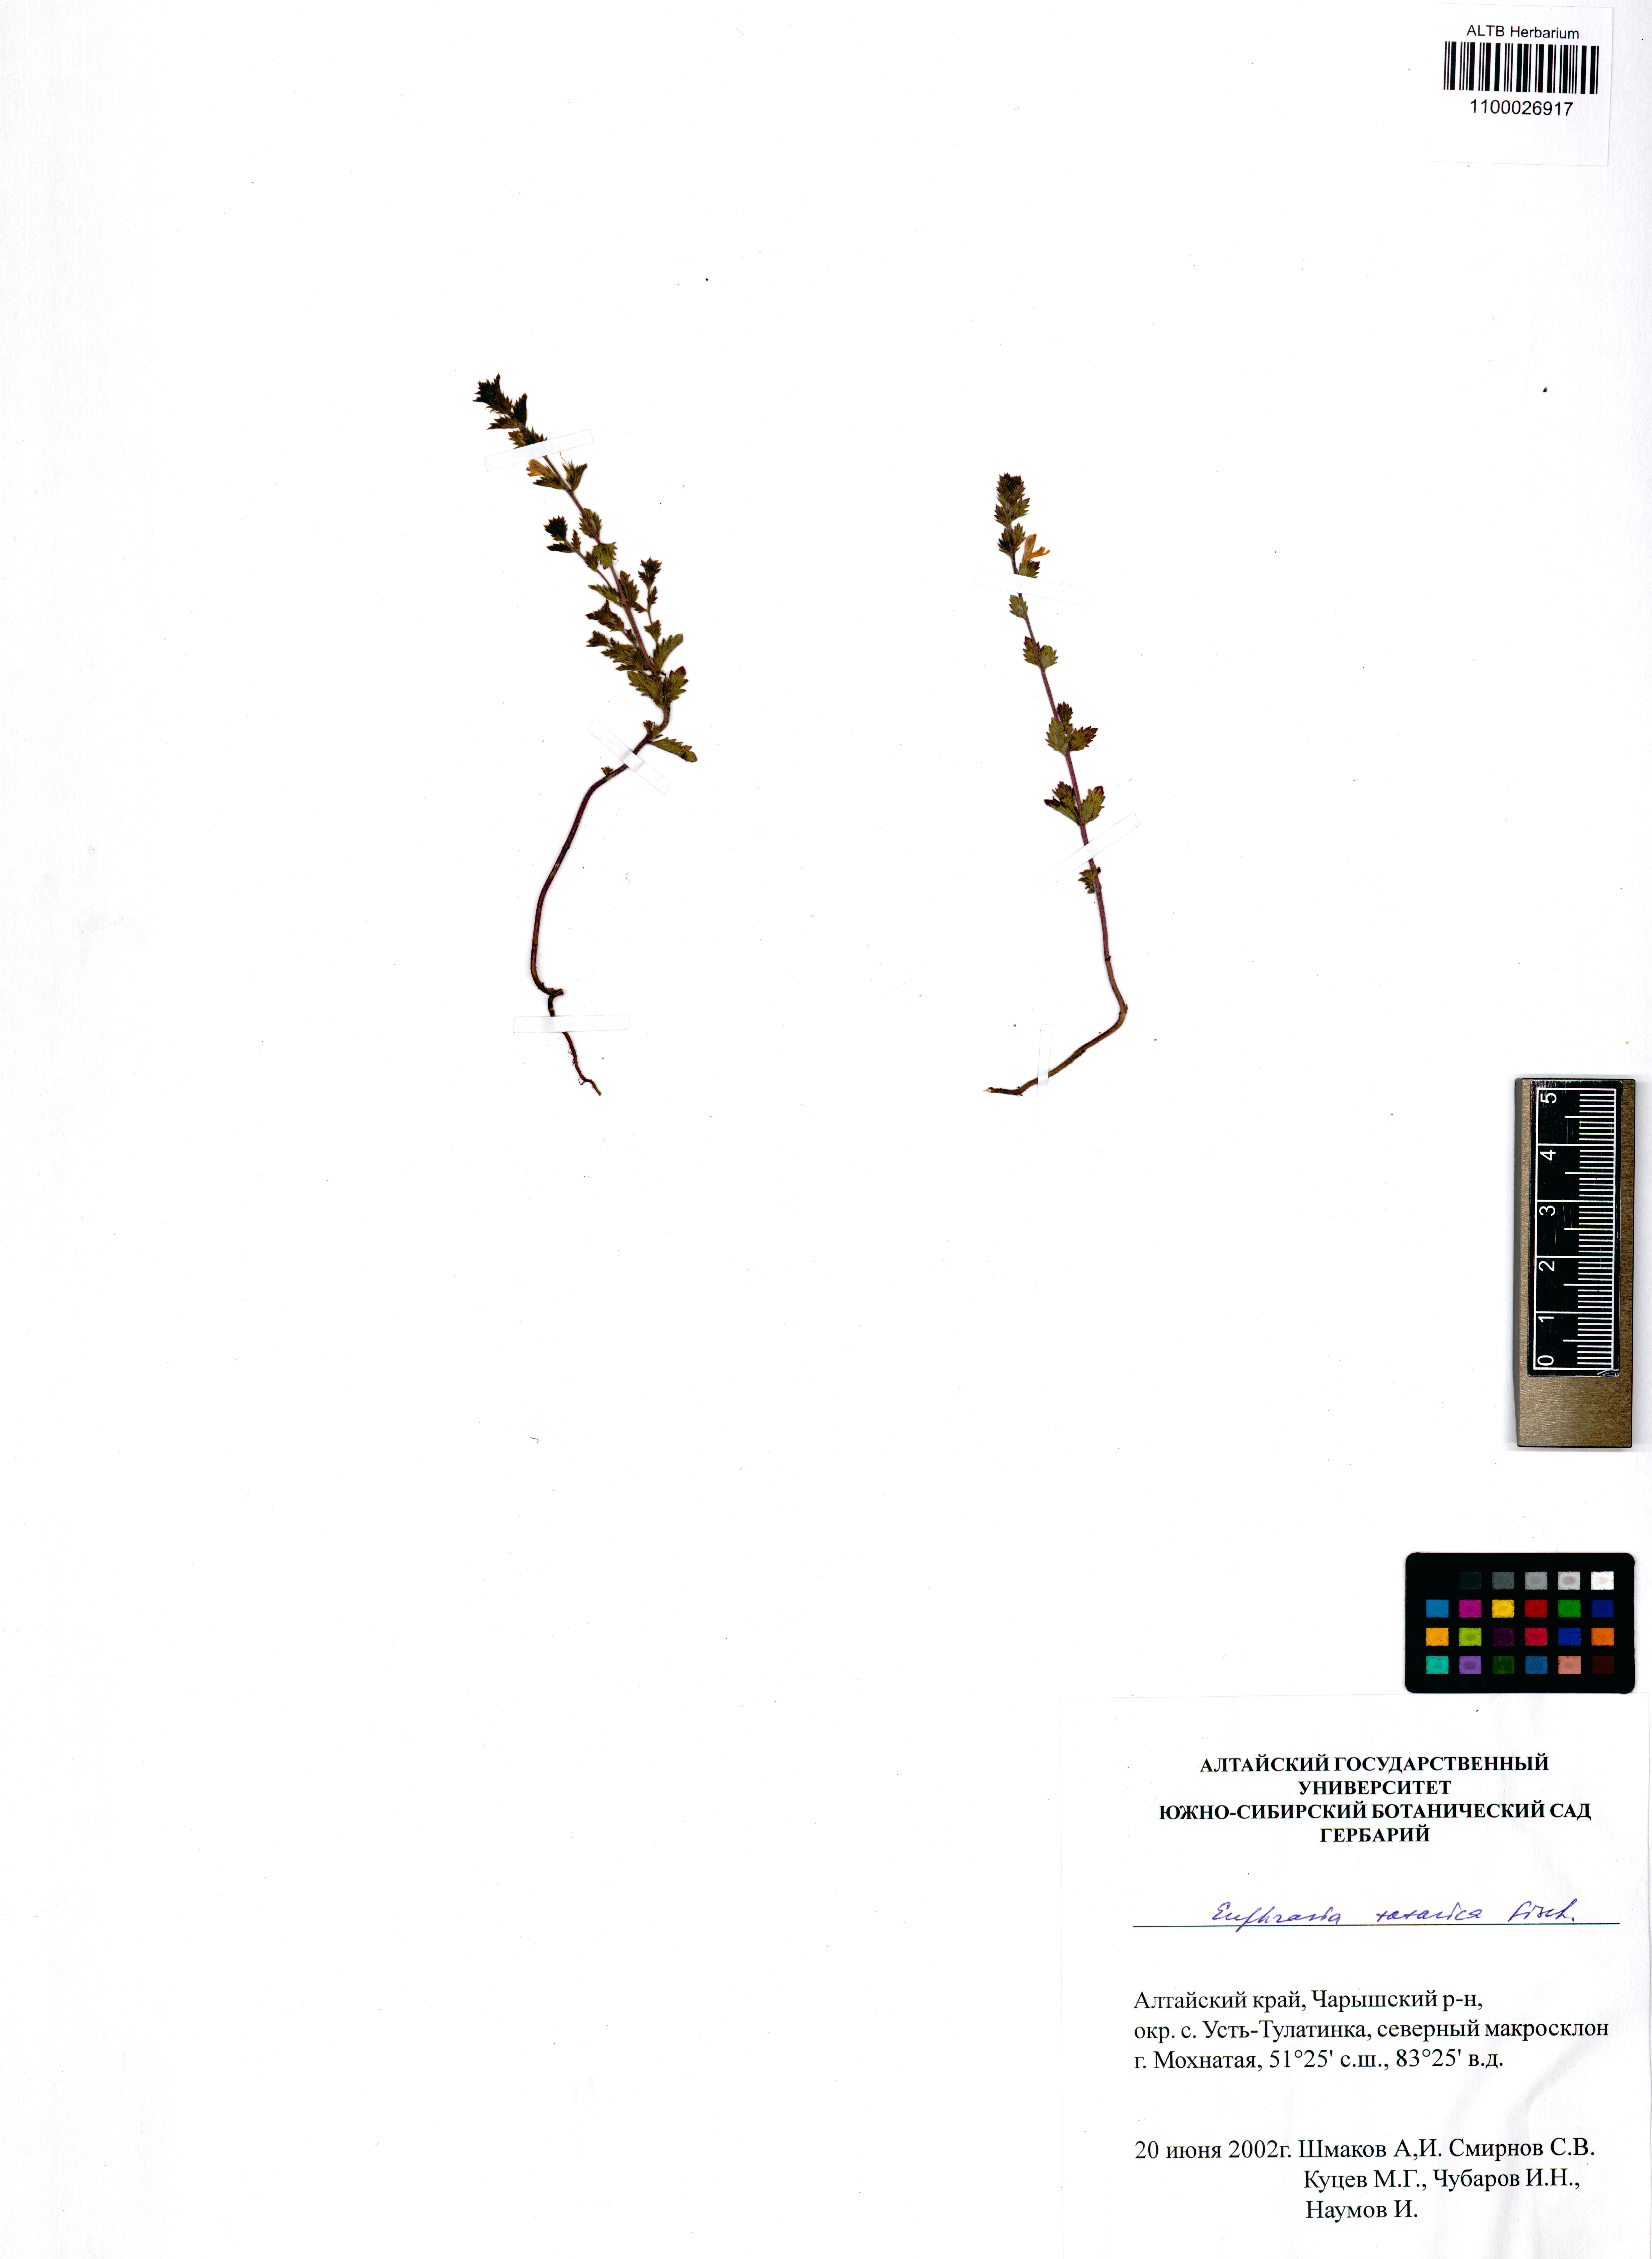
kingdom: Plantae
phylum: Tracheophyta
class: Magnoliopsida
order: Lamiales
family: Orobanchaceae
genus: Euphrasia
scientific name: Euphrasia pectinata
